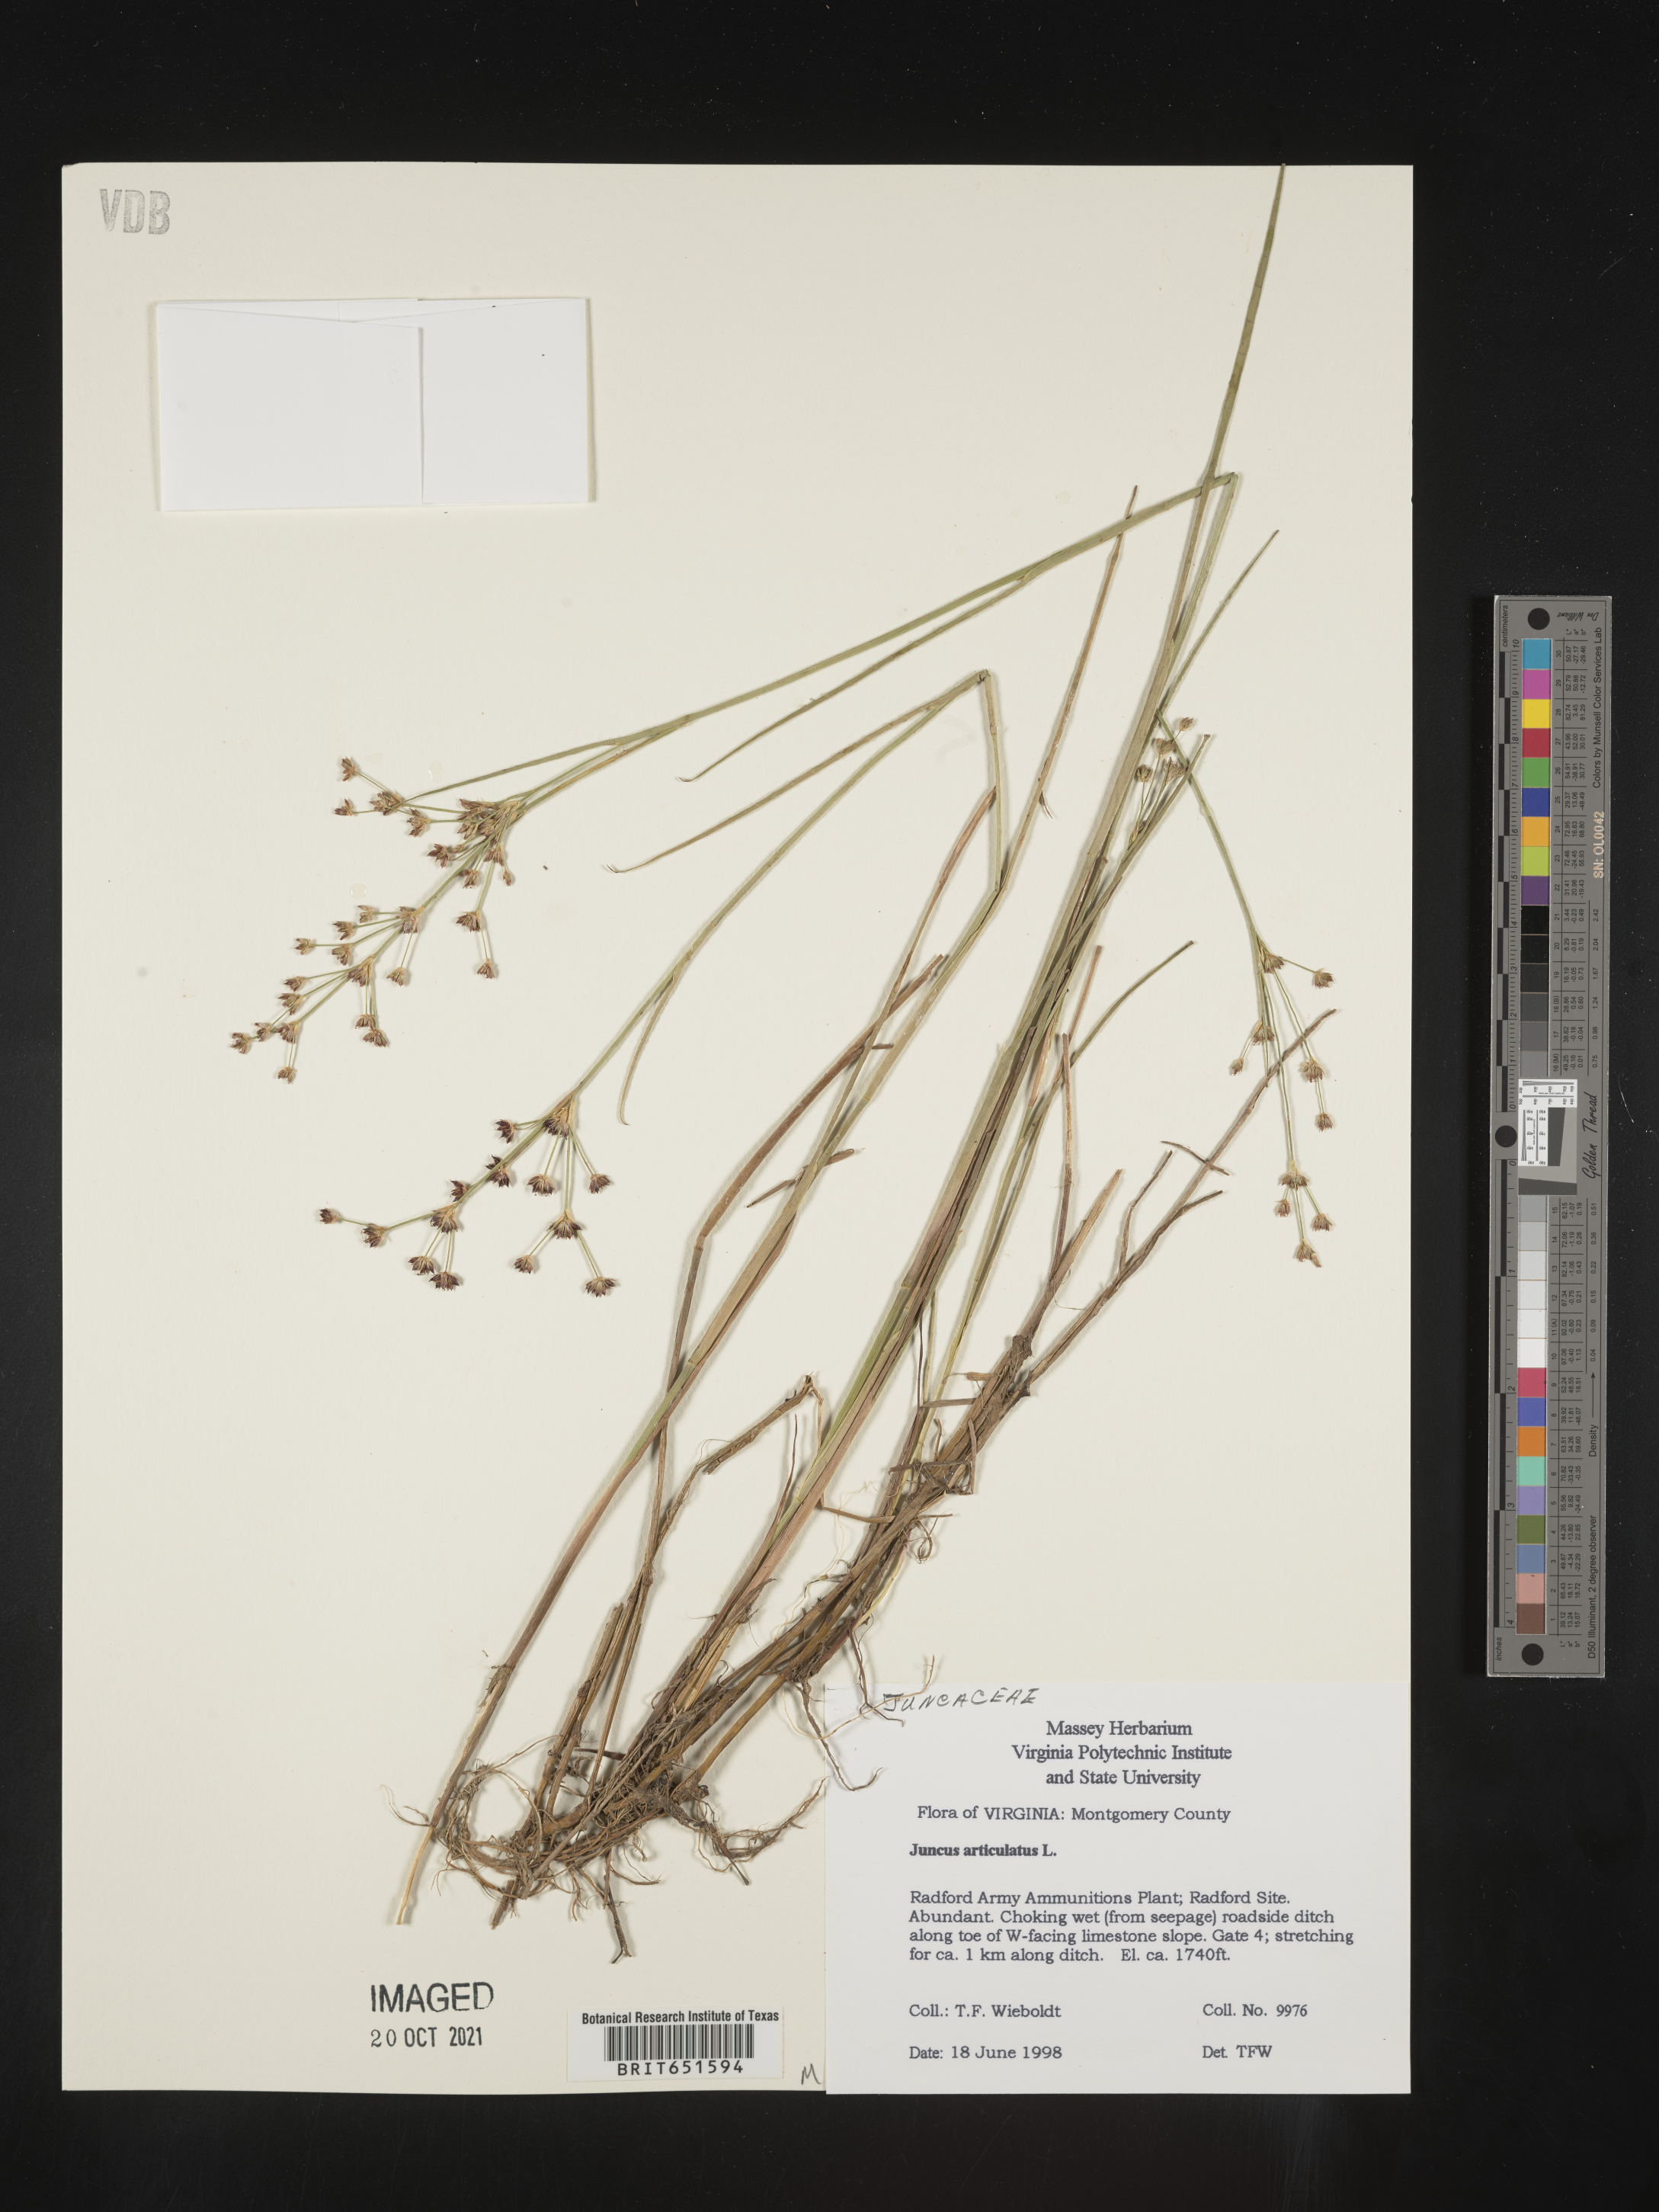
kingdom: Plantae
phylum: Tracheophyta
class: Liliopsida
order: Poales
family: Juncaceae
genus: Juncus
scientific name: Juncus articulatus
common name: Jointed rush
